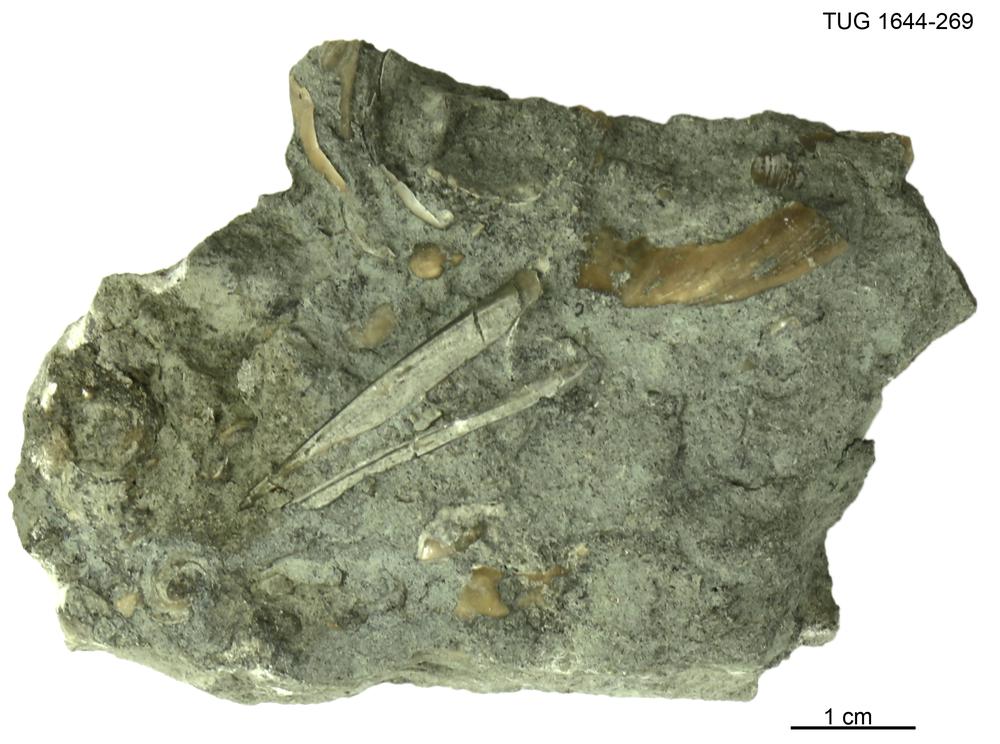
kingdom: Animalia
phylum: Mollusca
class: Monoplacophora
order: Tryblidiida
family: Tryblidiidae
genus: Pilina
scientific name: Pilina
